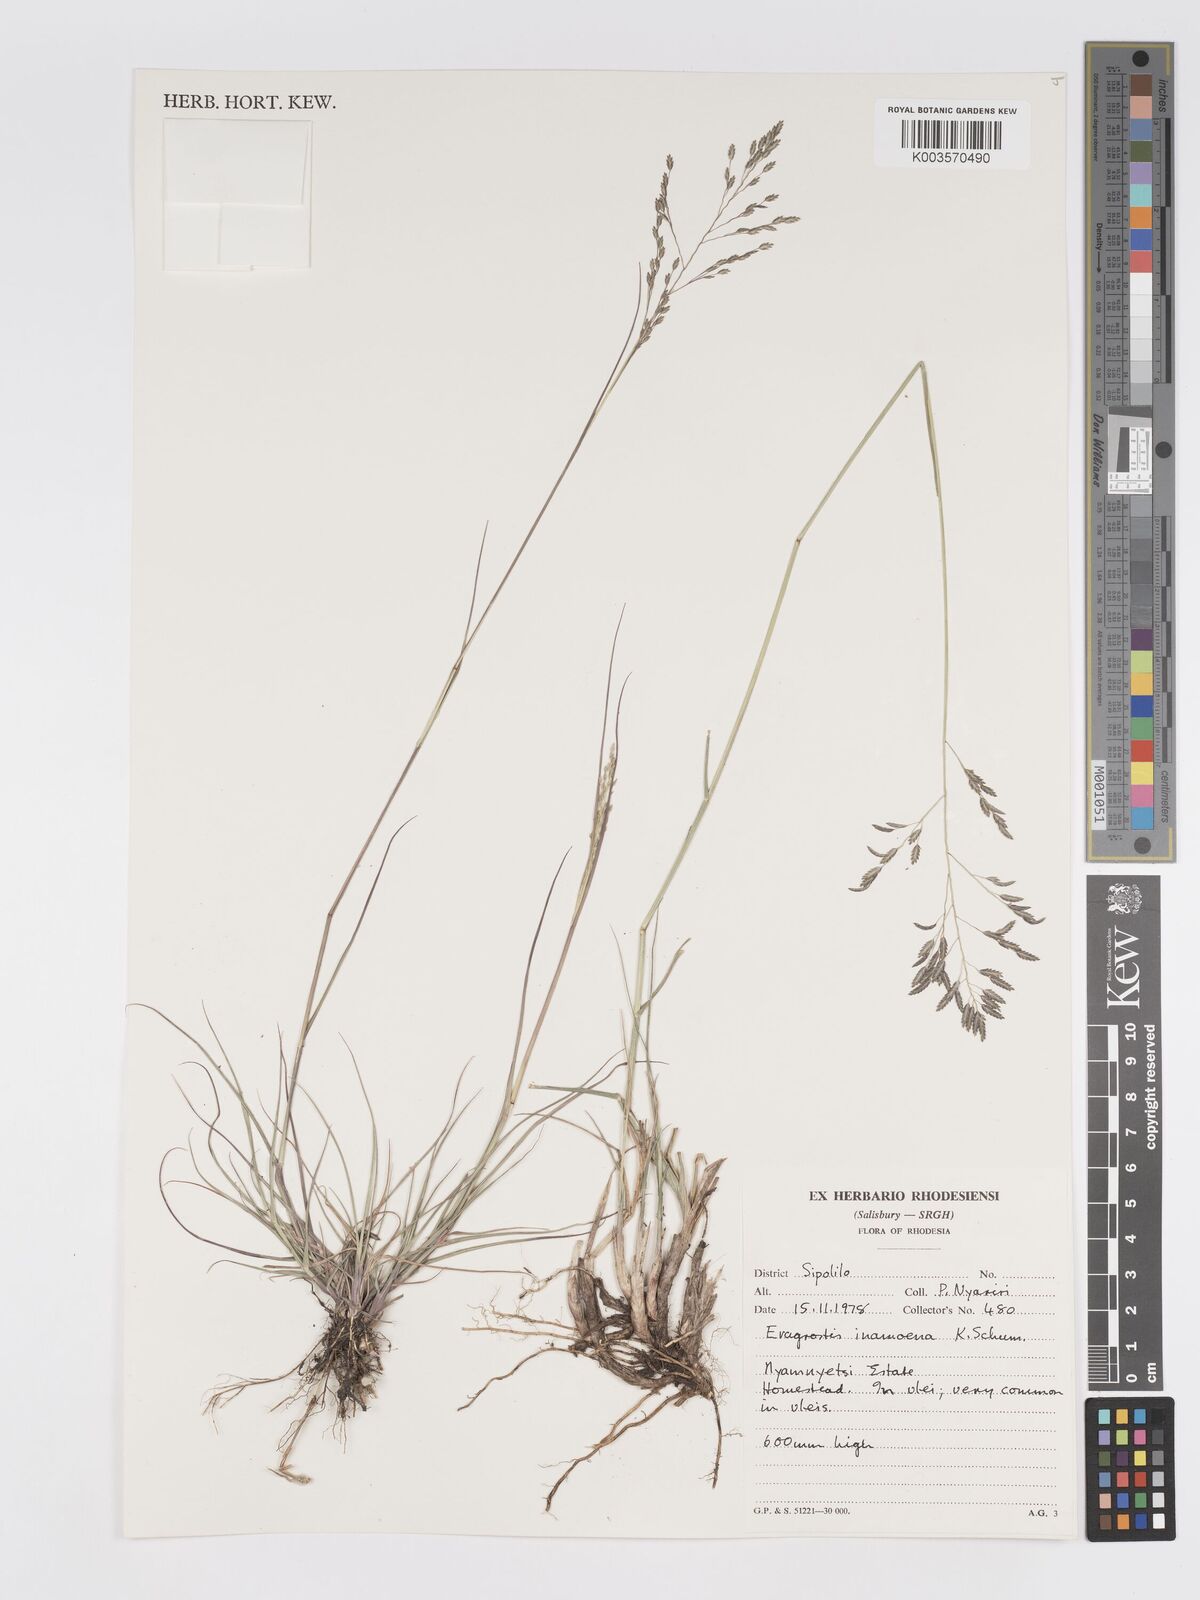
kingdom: Plantae
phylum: Tracheophyta
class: Liliopsida
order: Poales
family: Poaceae
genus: Eragrostis
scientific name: Eragrostis inamoena
